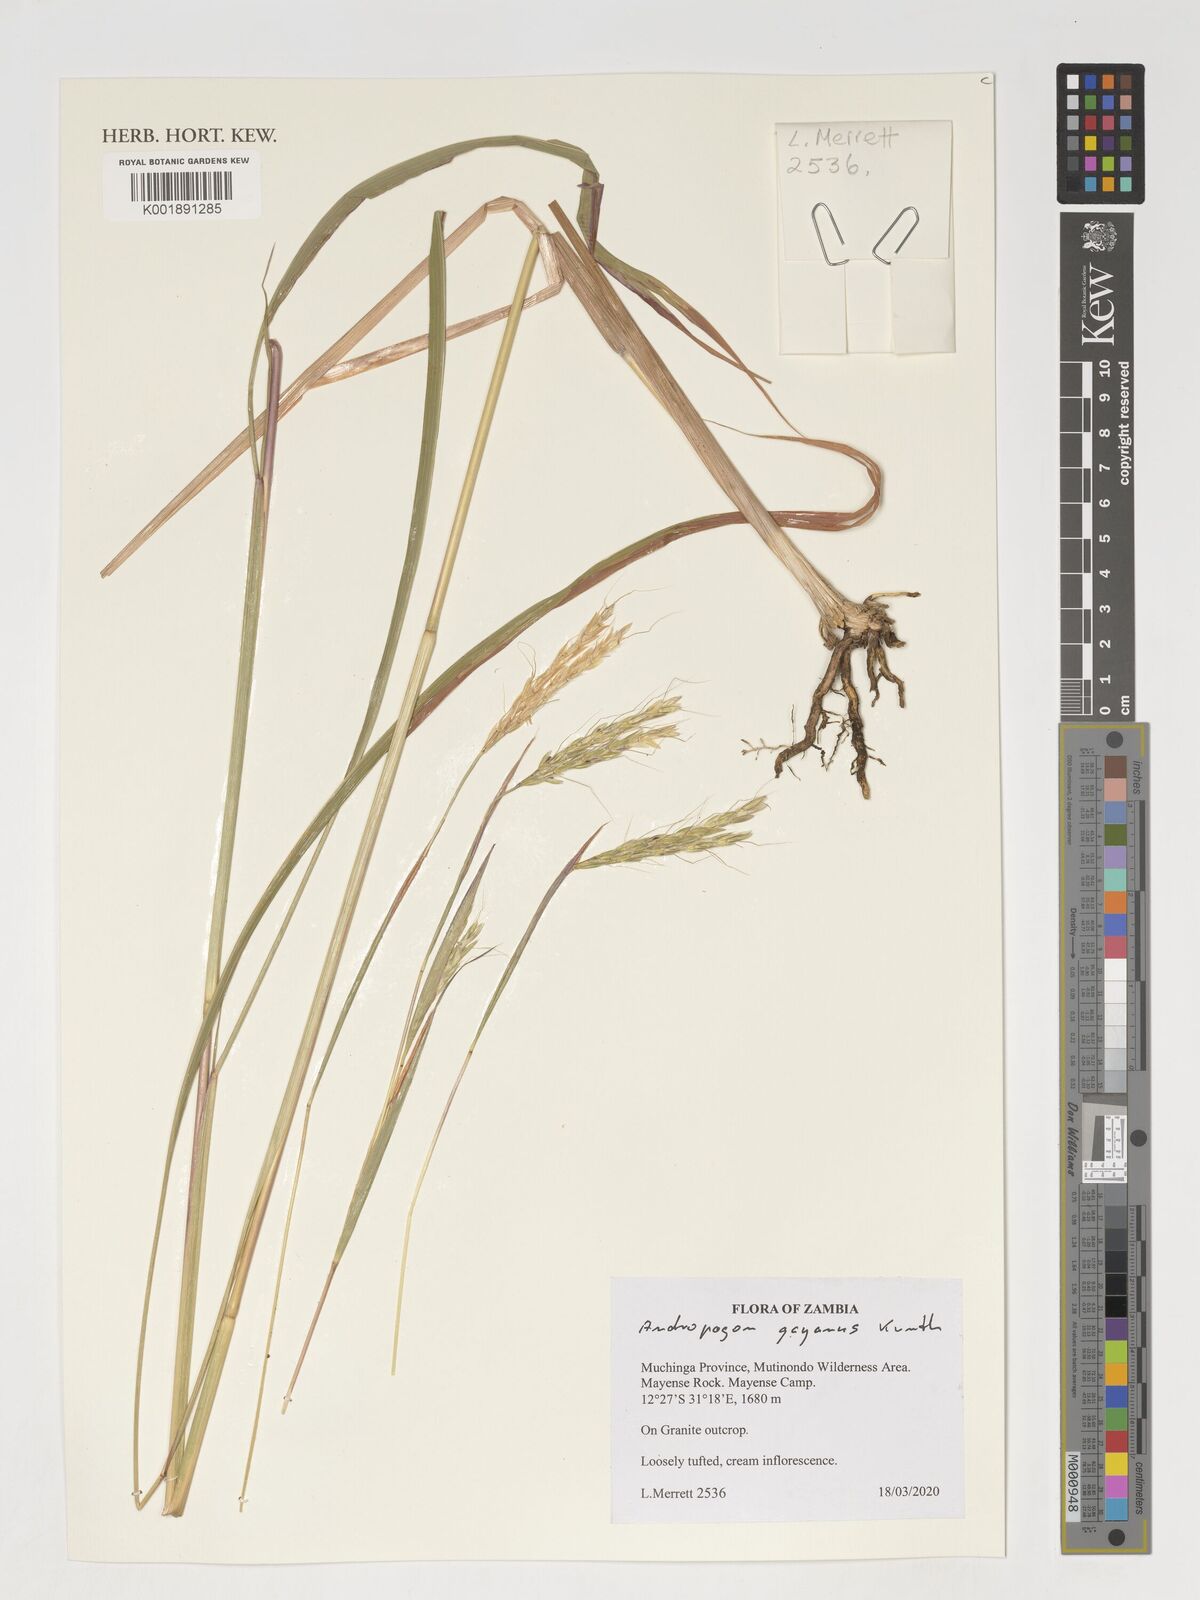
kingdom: Plantae
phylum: Tracheophyta
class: Liliopsida
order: Poales
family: Poaceae
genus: Andropogon
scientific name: Andropogon gayanus
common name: Tambuki grass
